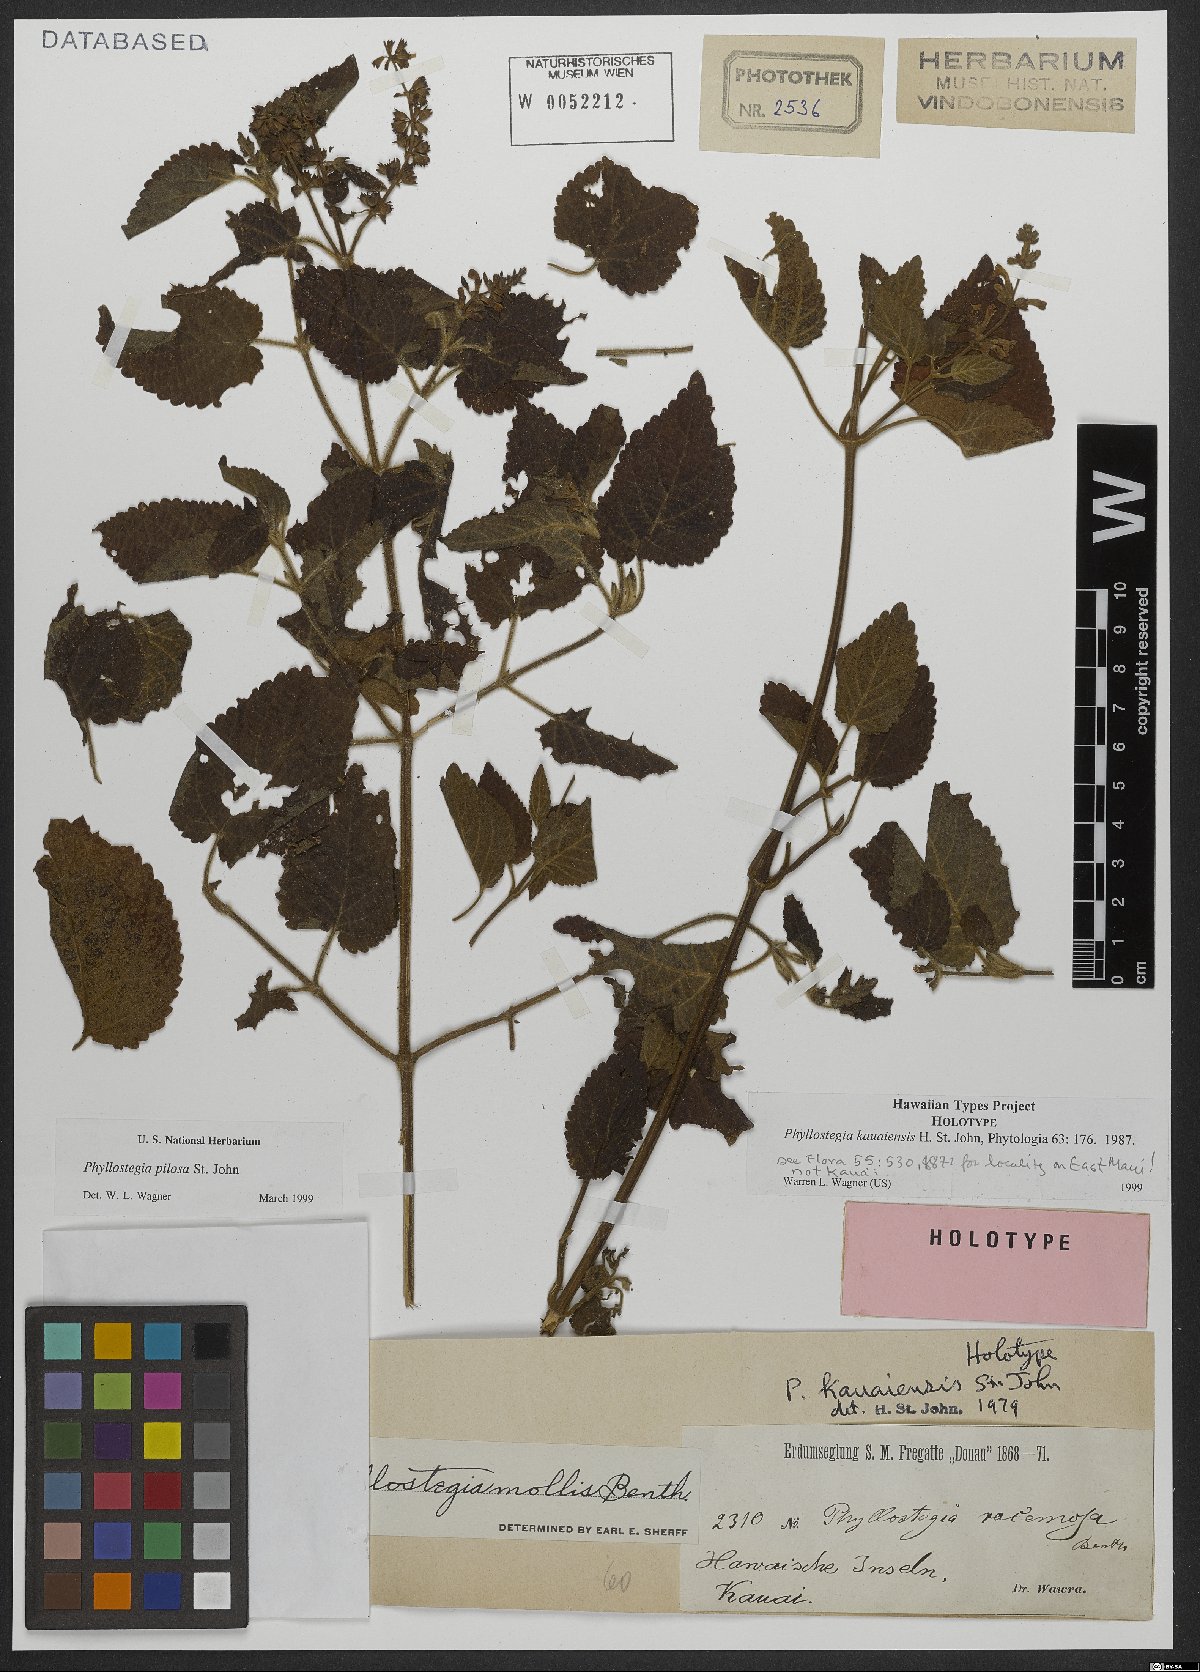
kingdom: Plantae
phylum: Tracheophyta
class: Magnoliopsida
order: Lamiales
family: Lamiaceae
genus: Phyllostegia
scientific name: Phyllostegia pilosa
